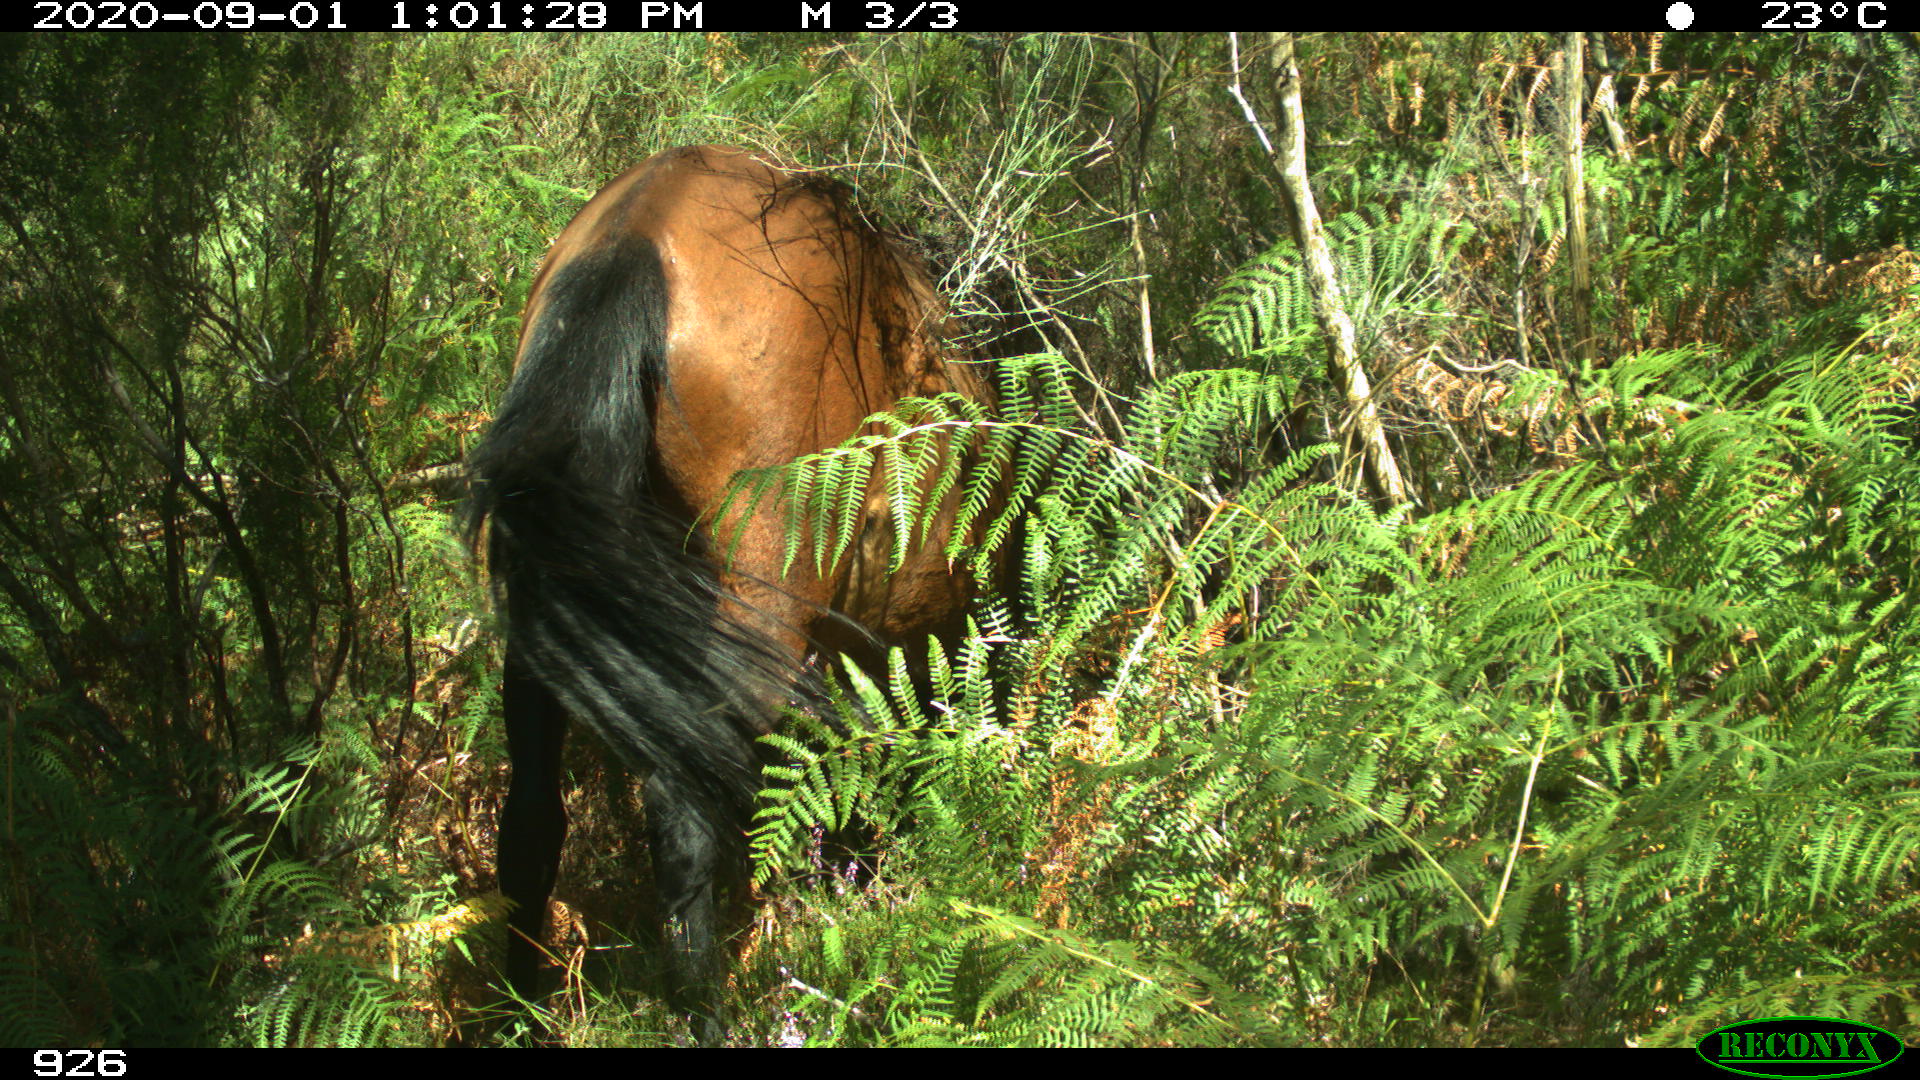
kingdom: Animalia
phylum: Chordata
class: Mammalia
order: Perissodactyla
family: Equidae
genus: Equus
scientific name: Equus caballus
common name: Horse
